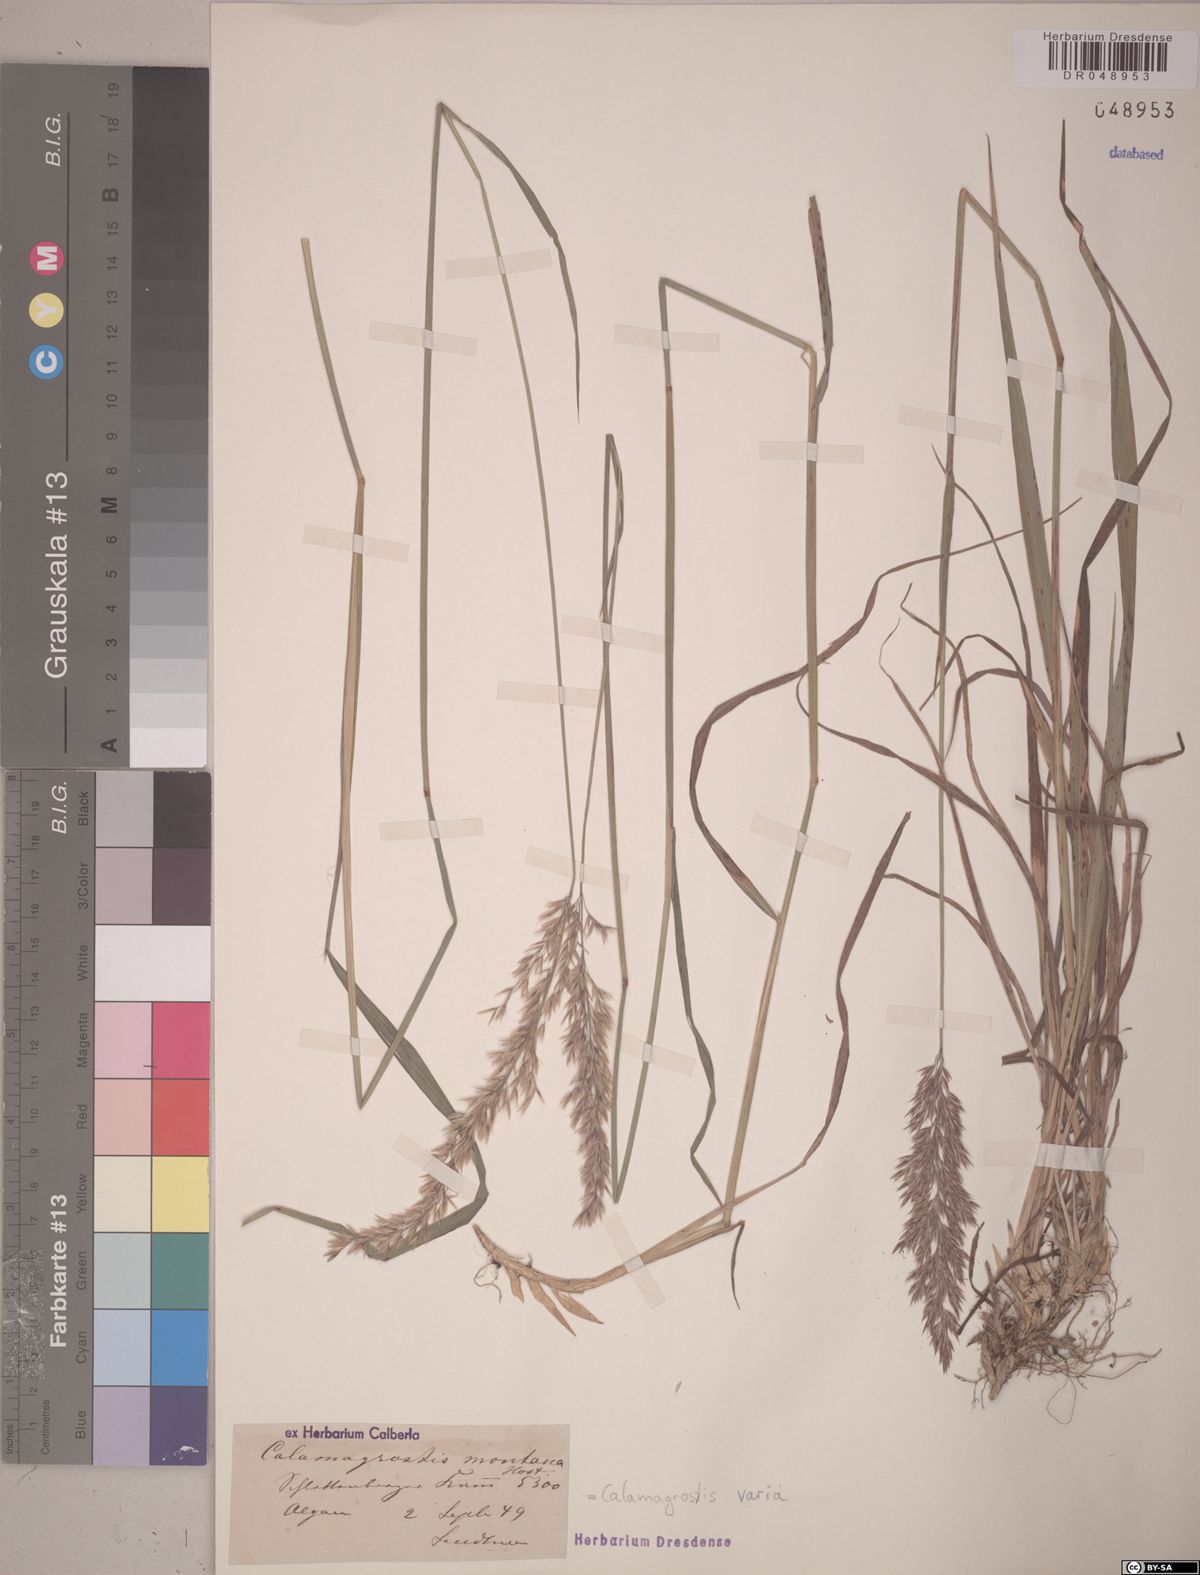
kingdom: Plantae
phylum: Tracheophyta
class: Liliopsida
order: Poales
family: Poaceae
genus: Calamagrostis
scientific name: Calamagrostis varia
